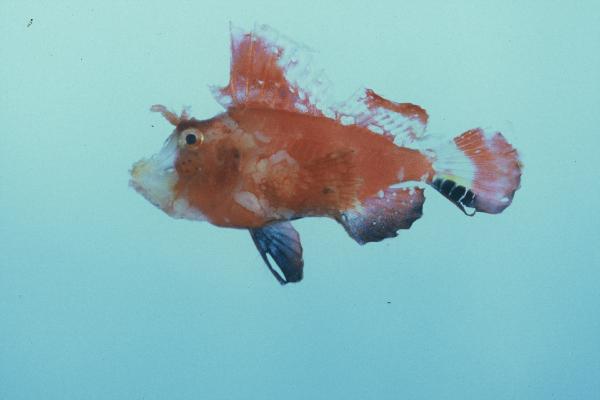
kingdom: Animalia
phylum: Chordata
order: Scorpaeniformes
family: Scorpaenidae
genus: Hipposcorpaena
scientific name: Hipposcorpaena filamentosus
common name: Filamentous scorpionfish
